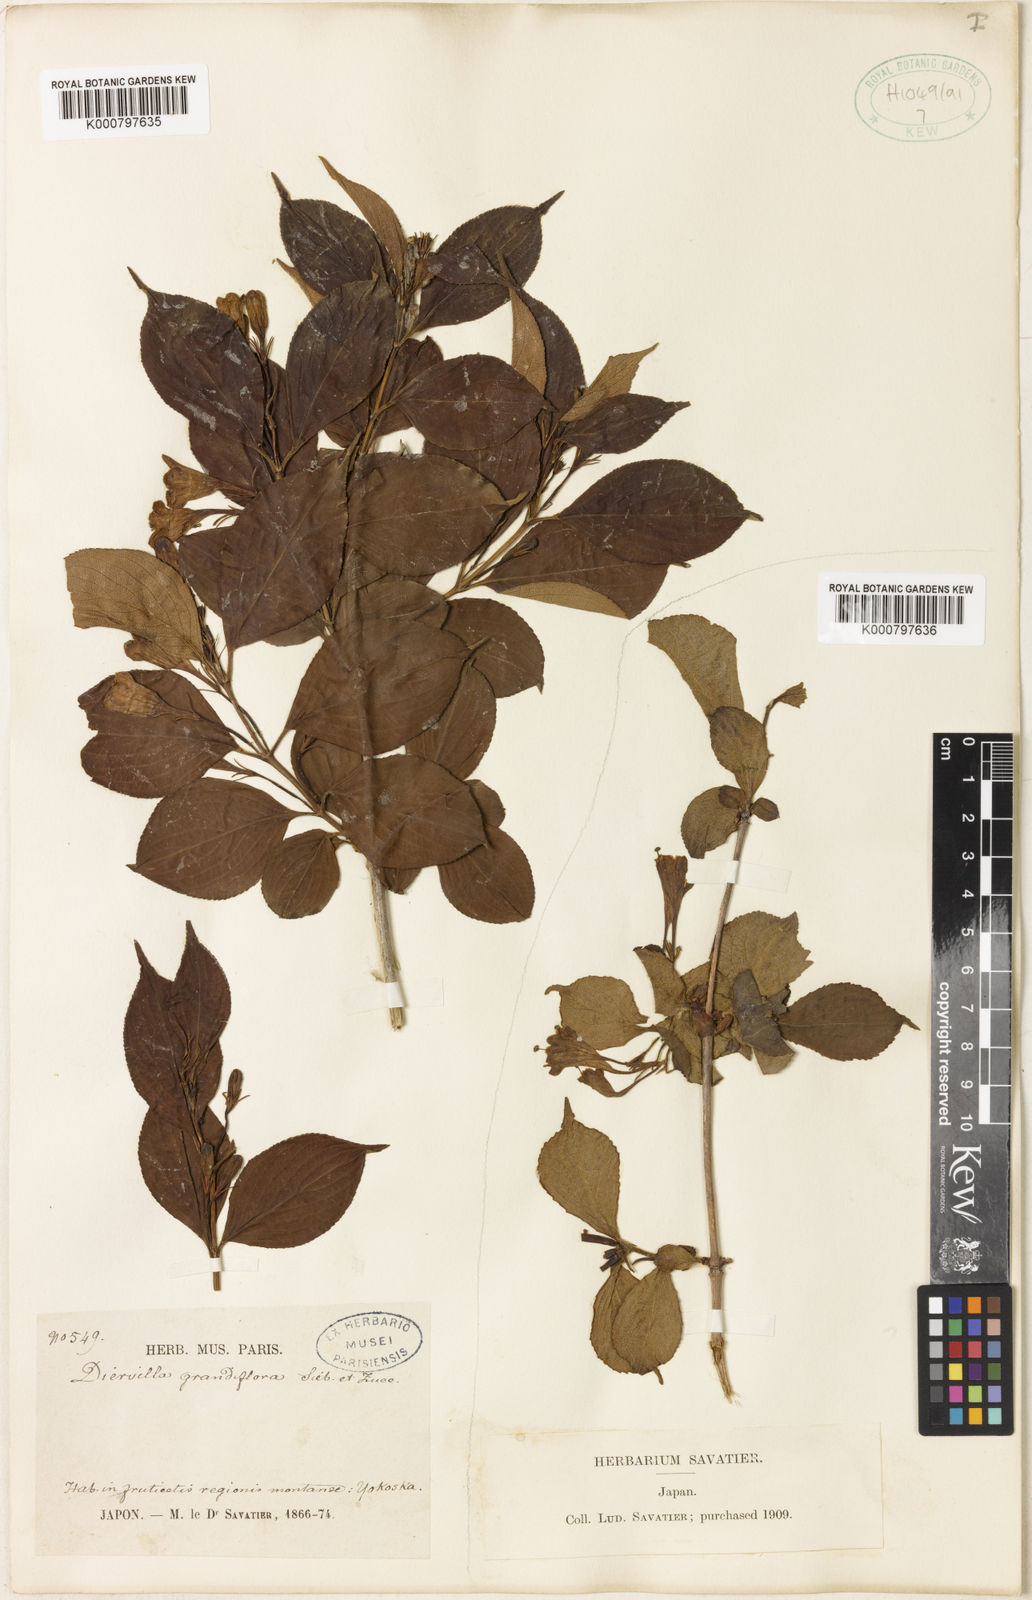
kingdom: Plantae
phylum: Tracheophyta
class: Magnoliopsida
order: Dipsacales
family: Caprifoliaceae
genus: Weigela
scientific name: Weigela coraeensis
